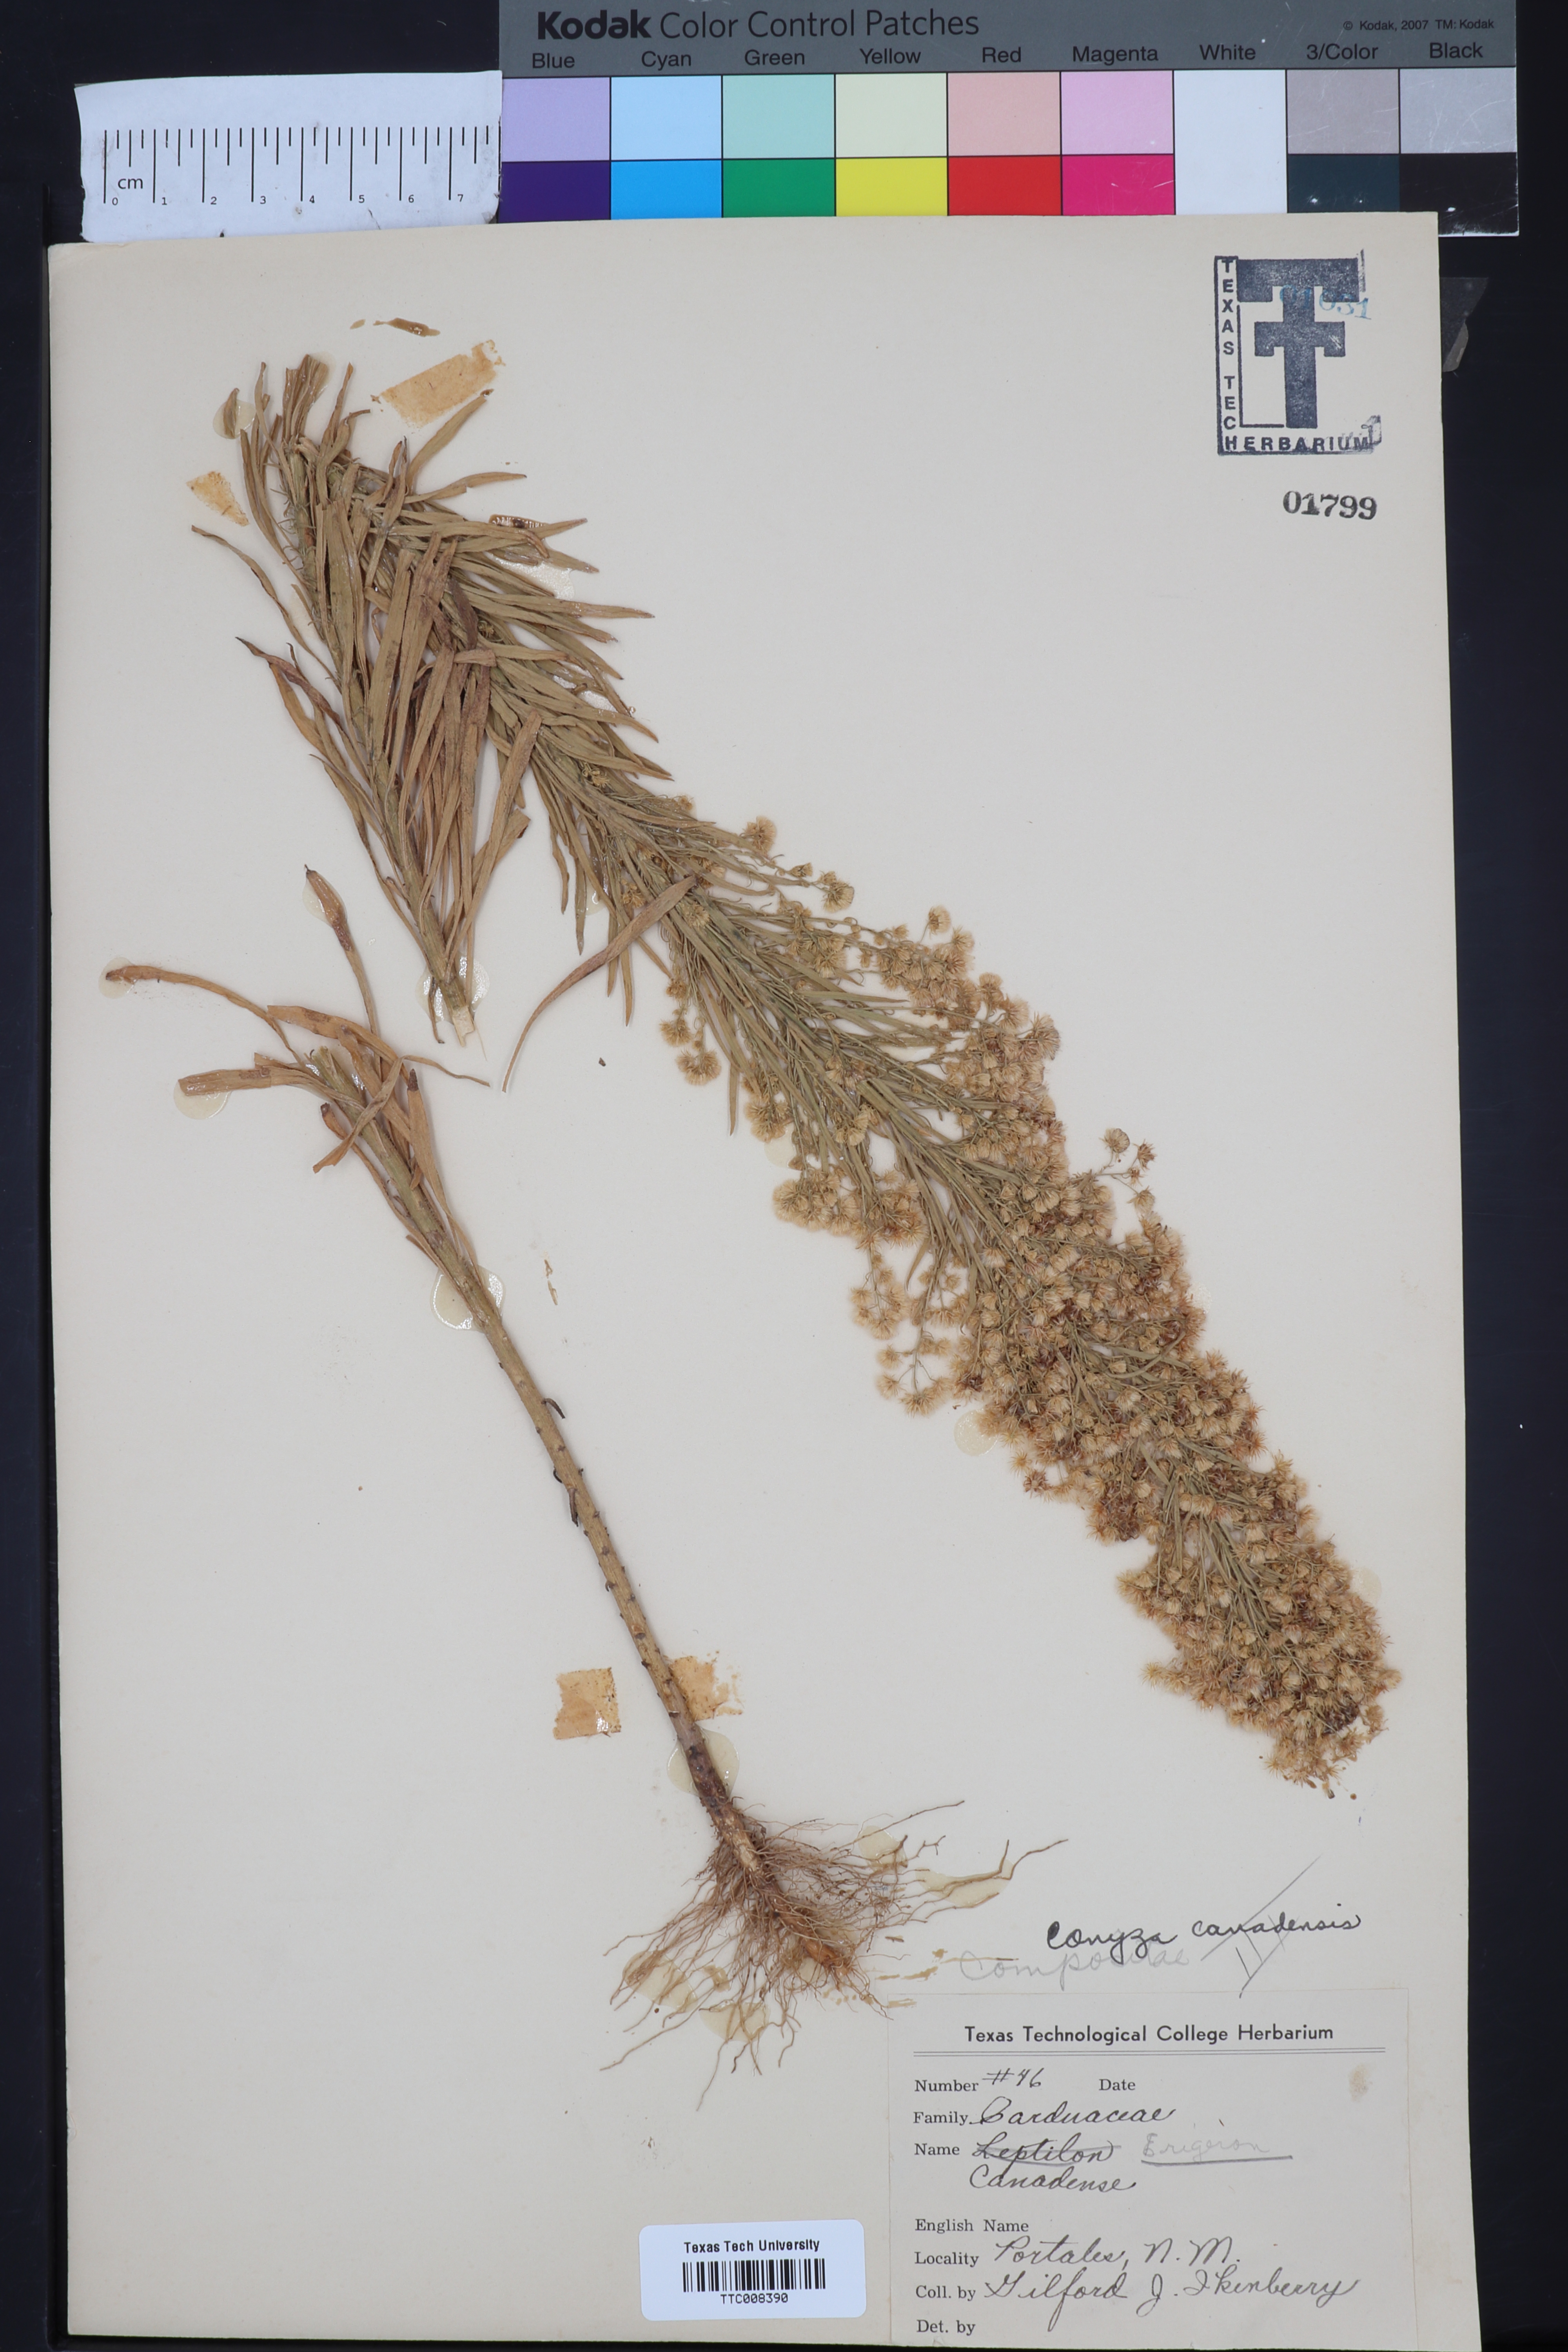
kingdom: Plantae
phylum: Tracheophyta
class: Magnoliopsida
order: Asterales
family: Asteraceae
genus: Erigeron
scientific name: Erigeron canadensis
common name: Canadian fleabane
